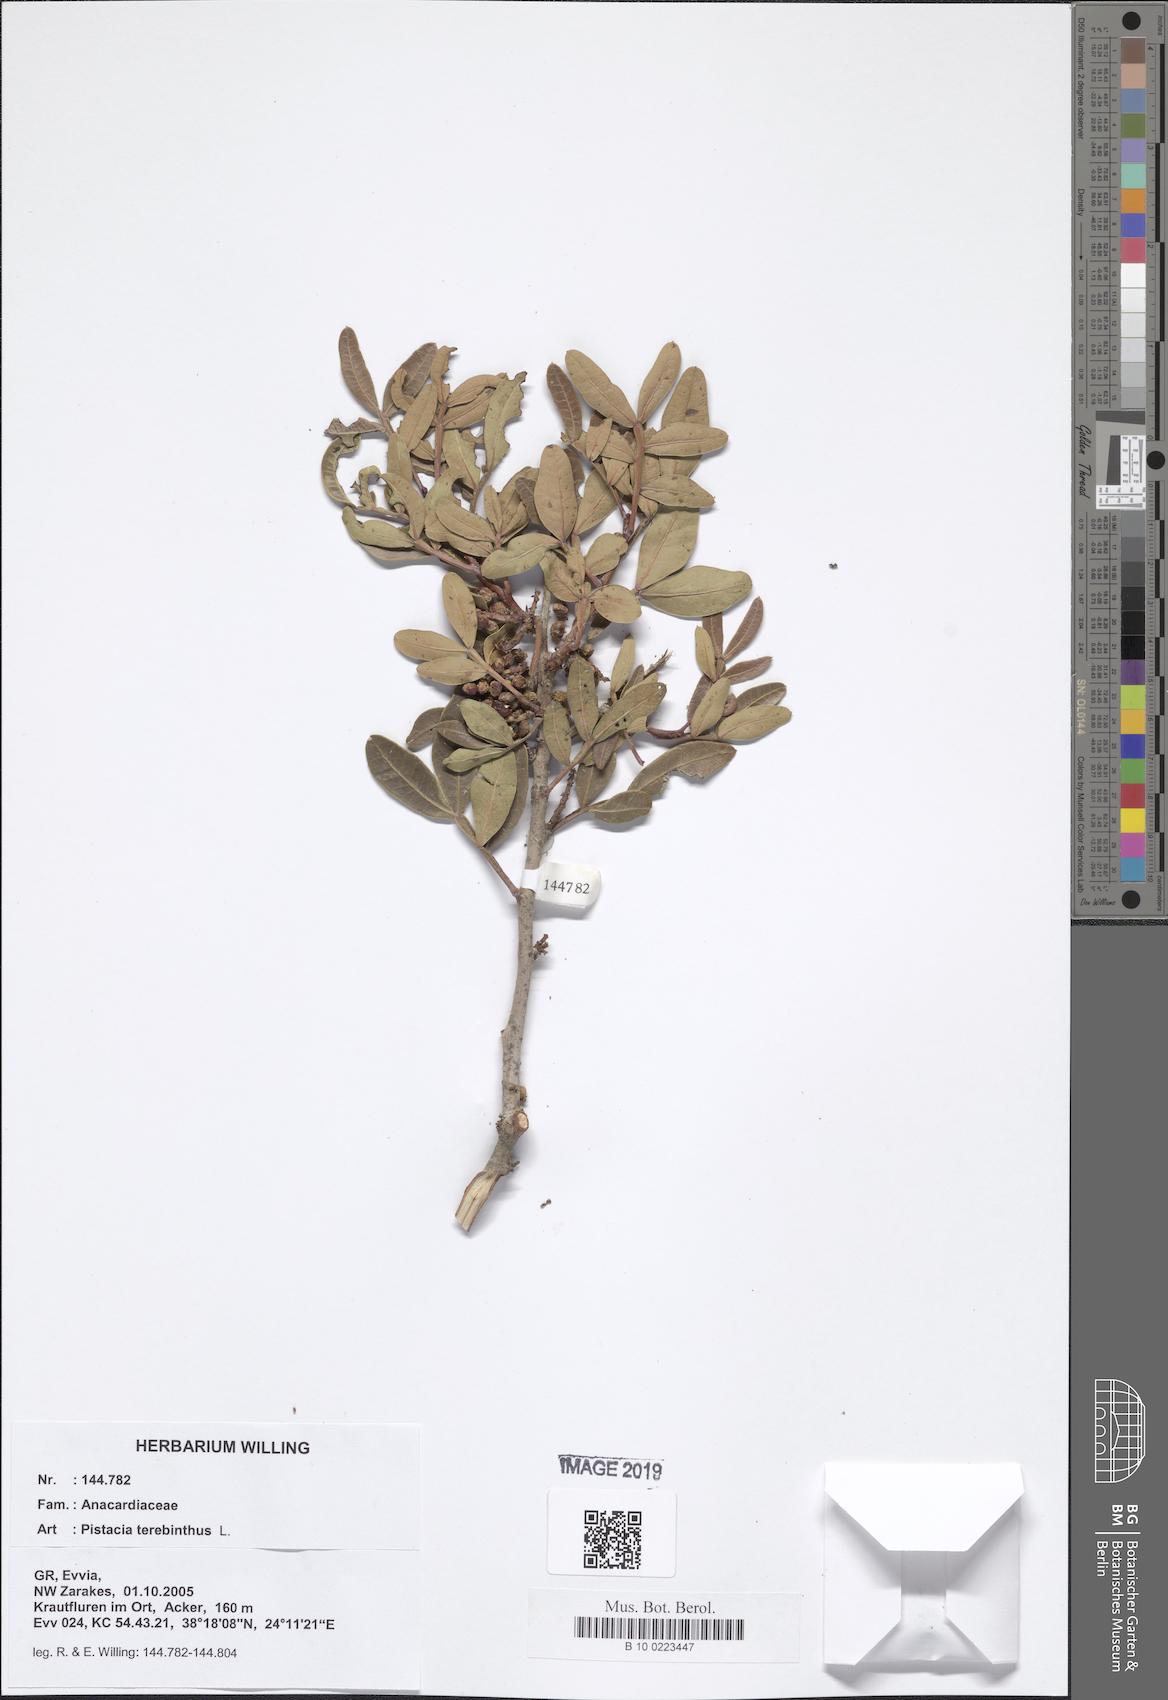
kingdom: Plantae
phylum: Tracheophyta
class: Magnoliopsida
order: Sapindales
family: Anacardiaceae
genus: Pistacia
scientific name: Pistacia terebinthus
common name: Terebinth
